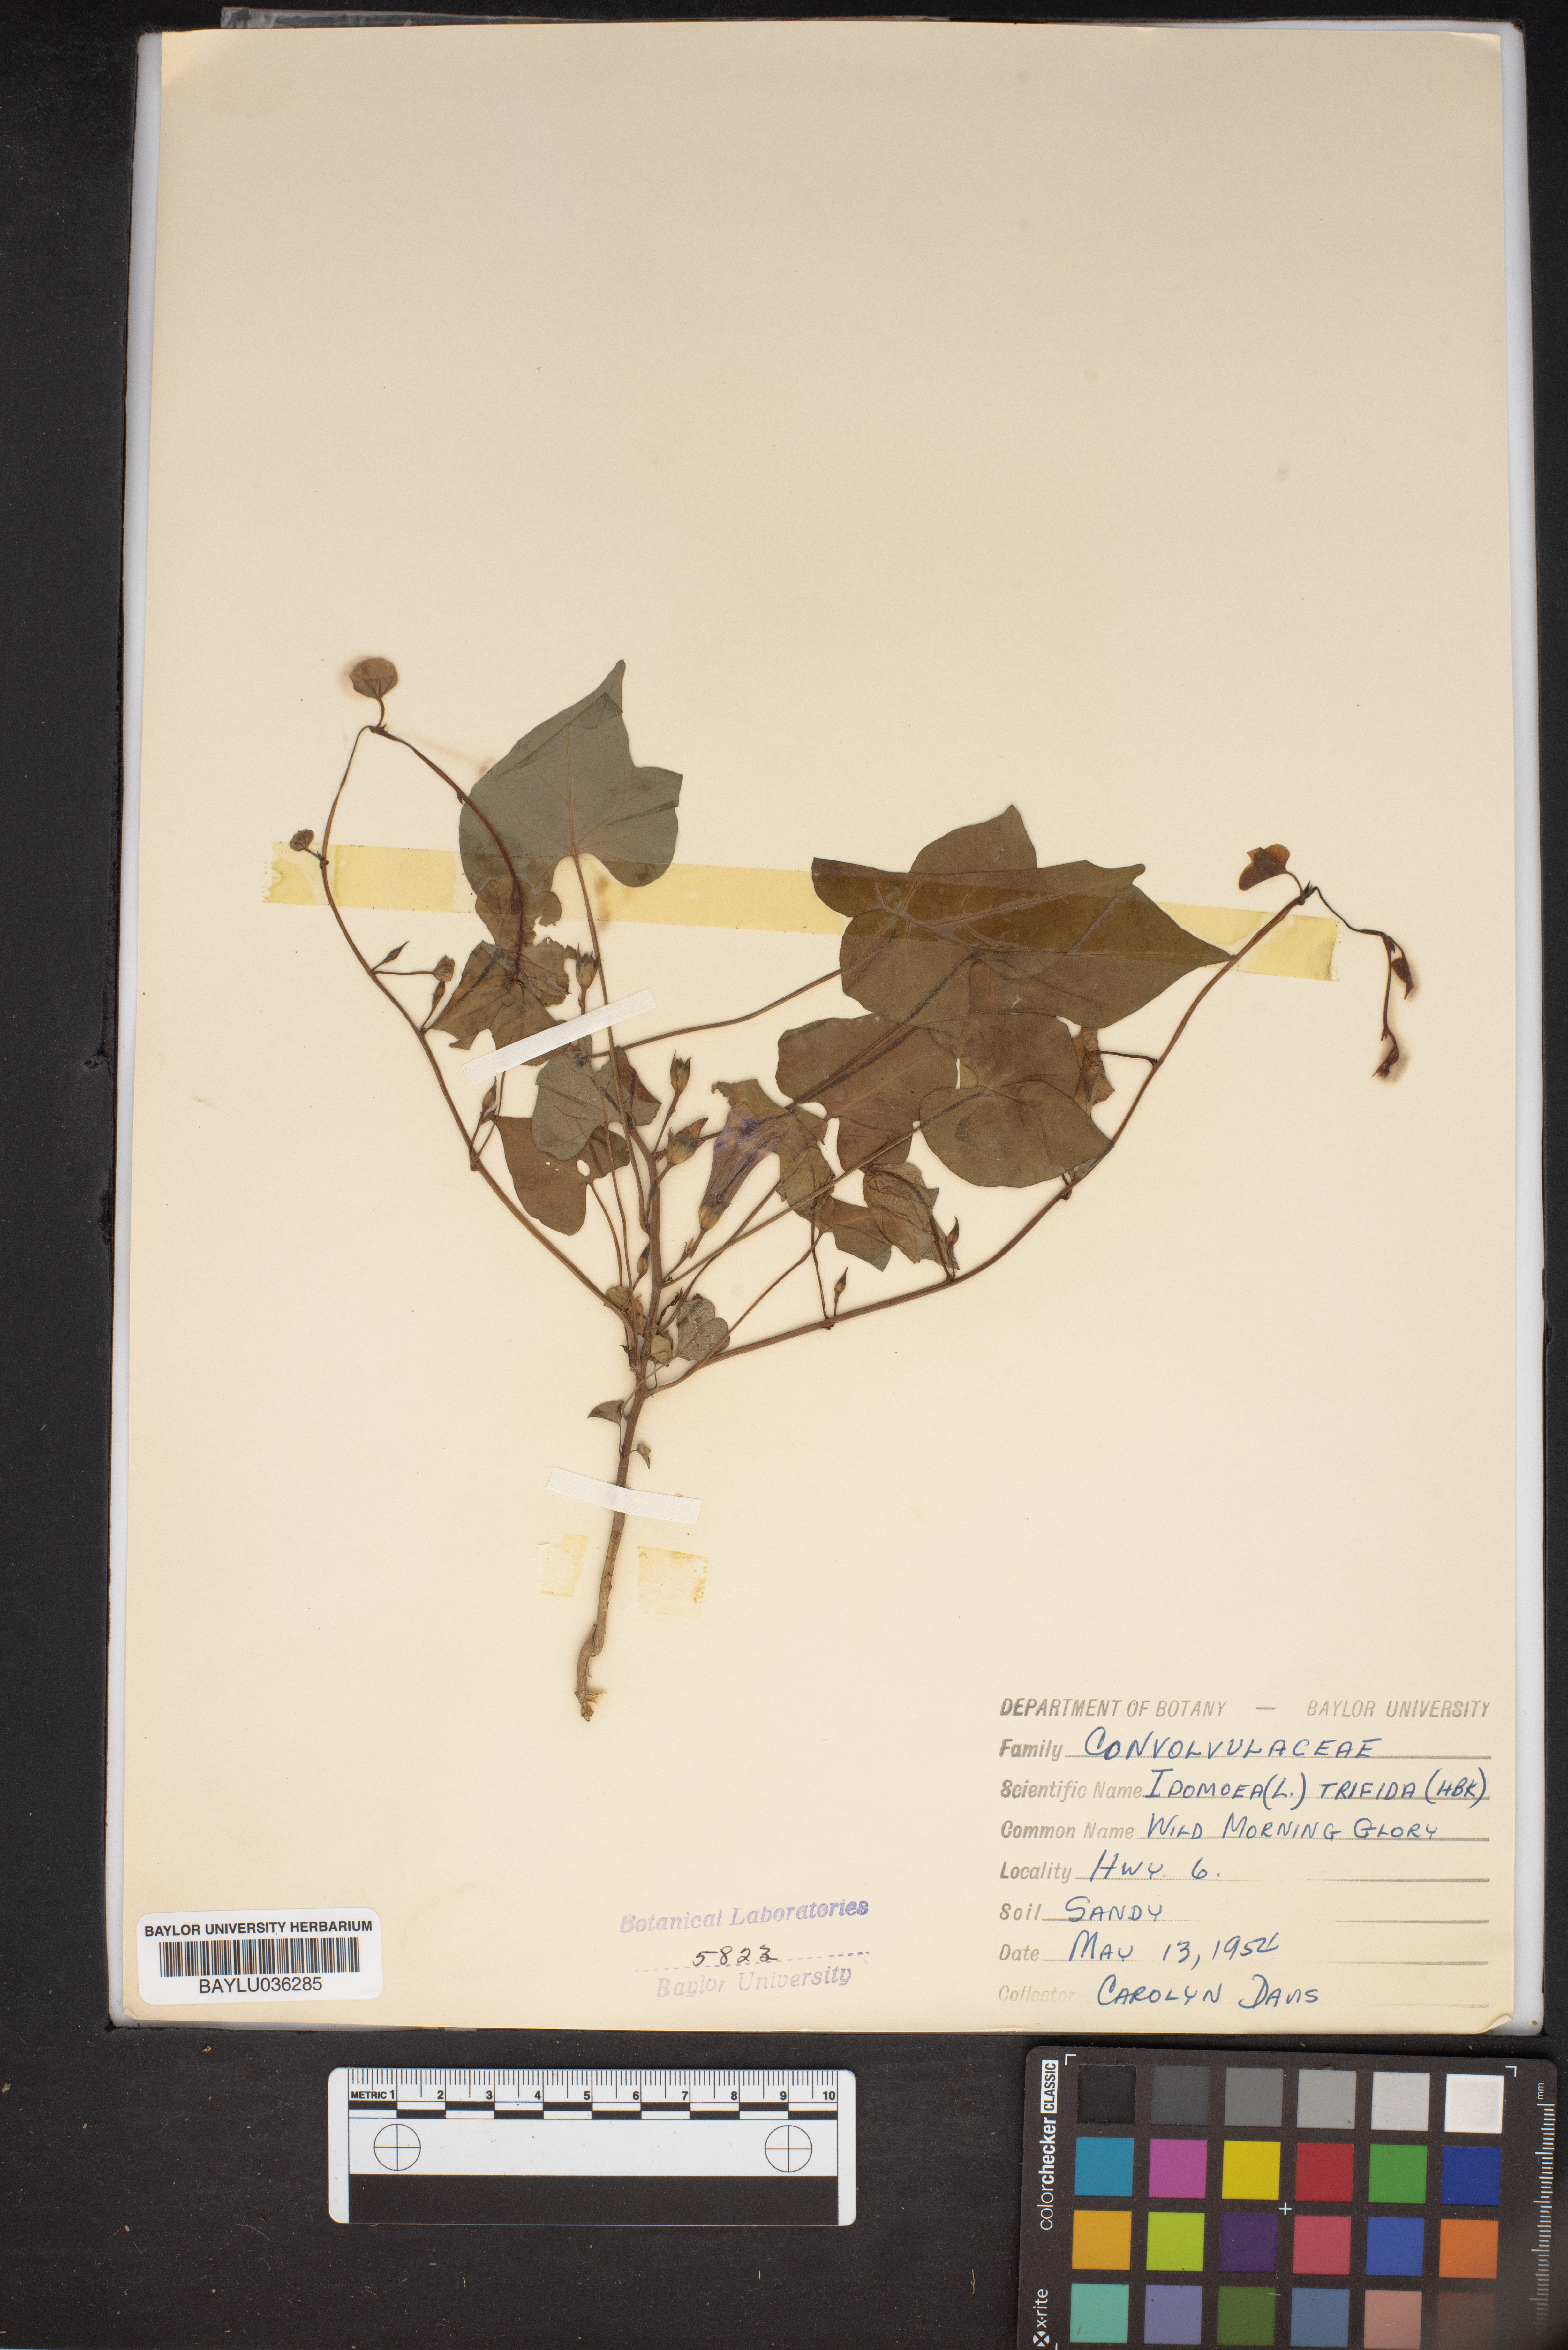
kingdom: Plantae
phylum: Tracheophyta
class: Magnoliopsida
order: Solanales
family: Convolvulaceae
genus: Ipomoea
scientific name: Ipomoea trifida
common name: Cotton morningglory
